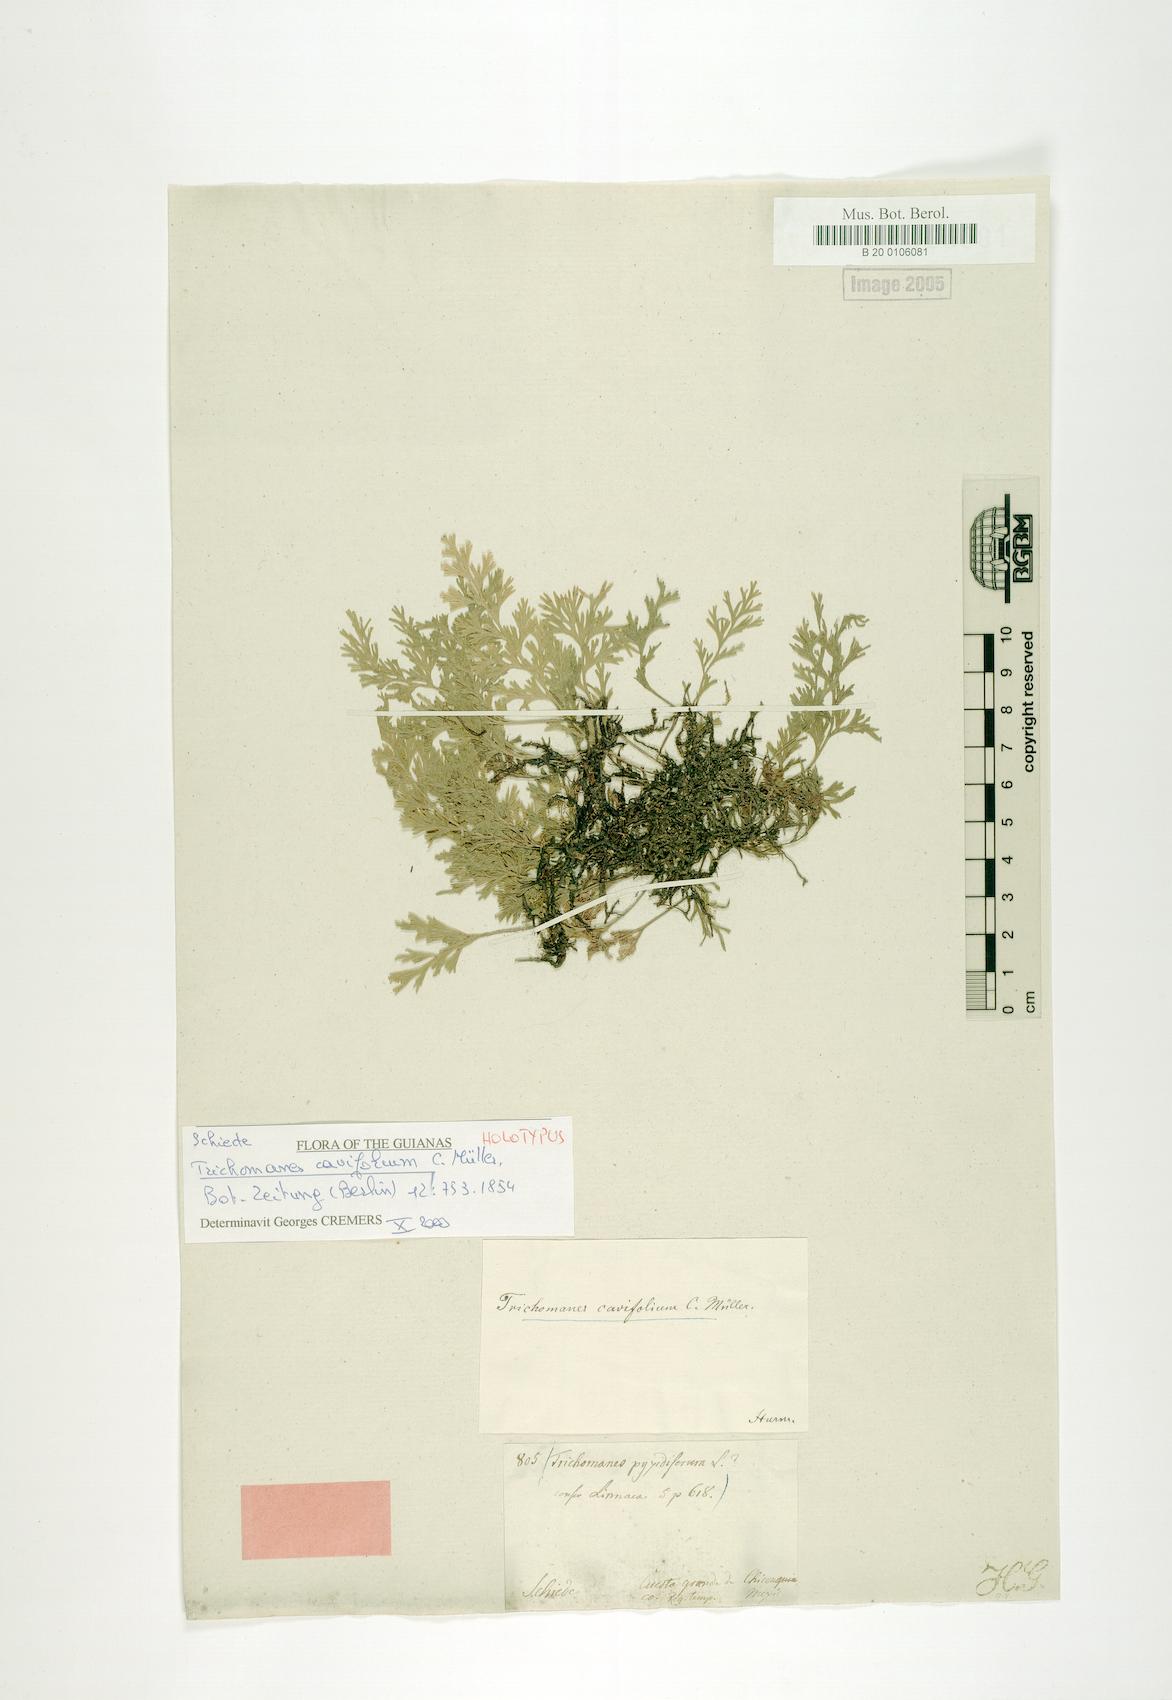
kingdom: Plantae
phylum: Tracheophyta
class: Polypodiopsida
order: Hymenophyllales
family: Hymenophyllaceae
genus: Polyphlebium
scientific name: Polyphlebium pyxidiferum
